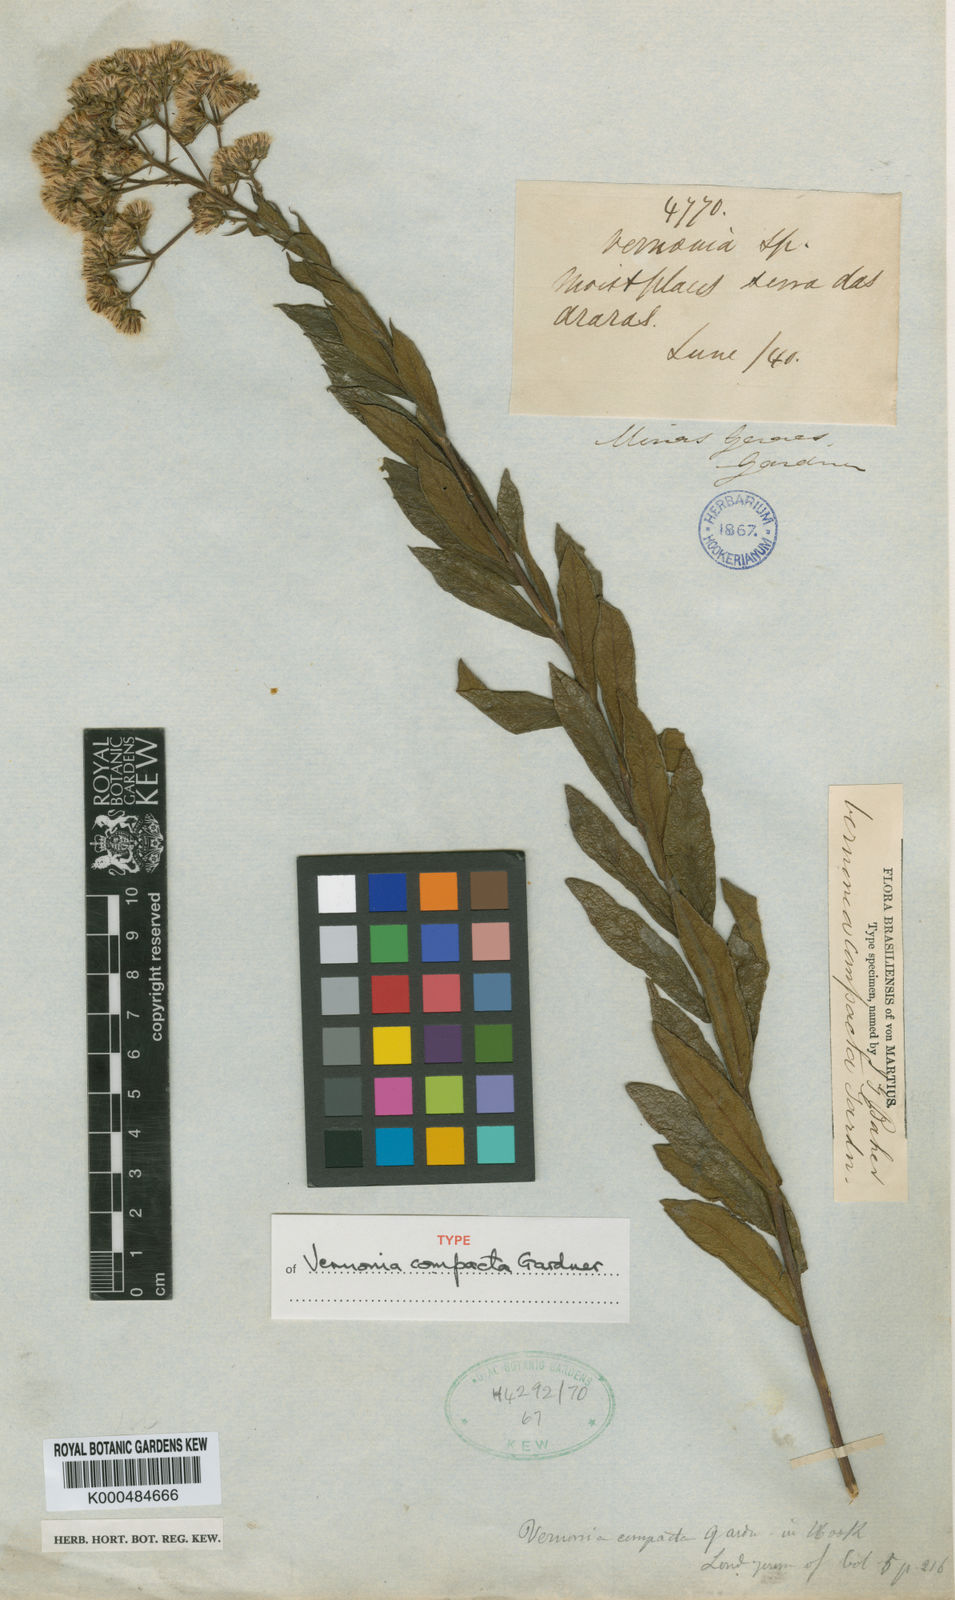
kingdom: Plantae
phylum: Tracheophyta
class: Magnoliopsida
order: Asterales
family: Asteraceae
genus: Vernonanthura
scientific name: Vernonanthura polyanthes
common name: Tree aster
